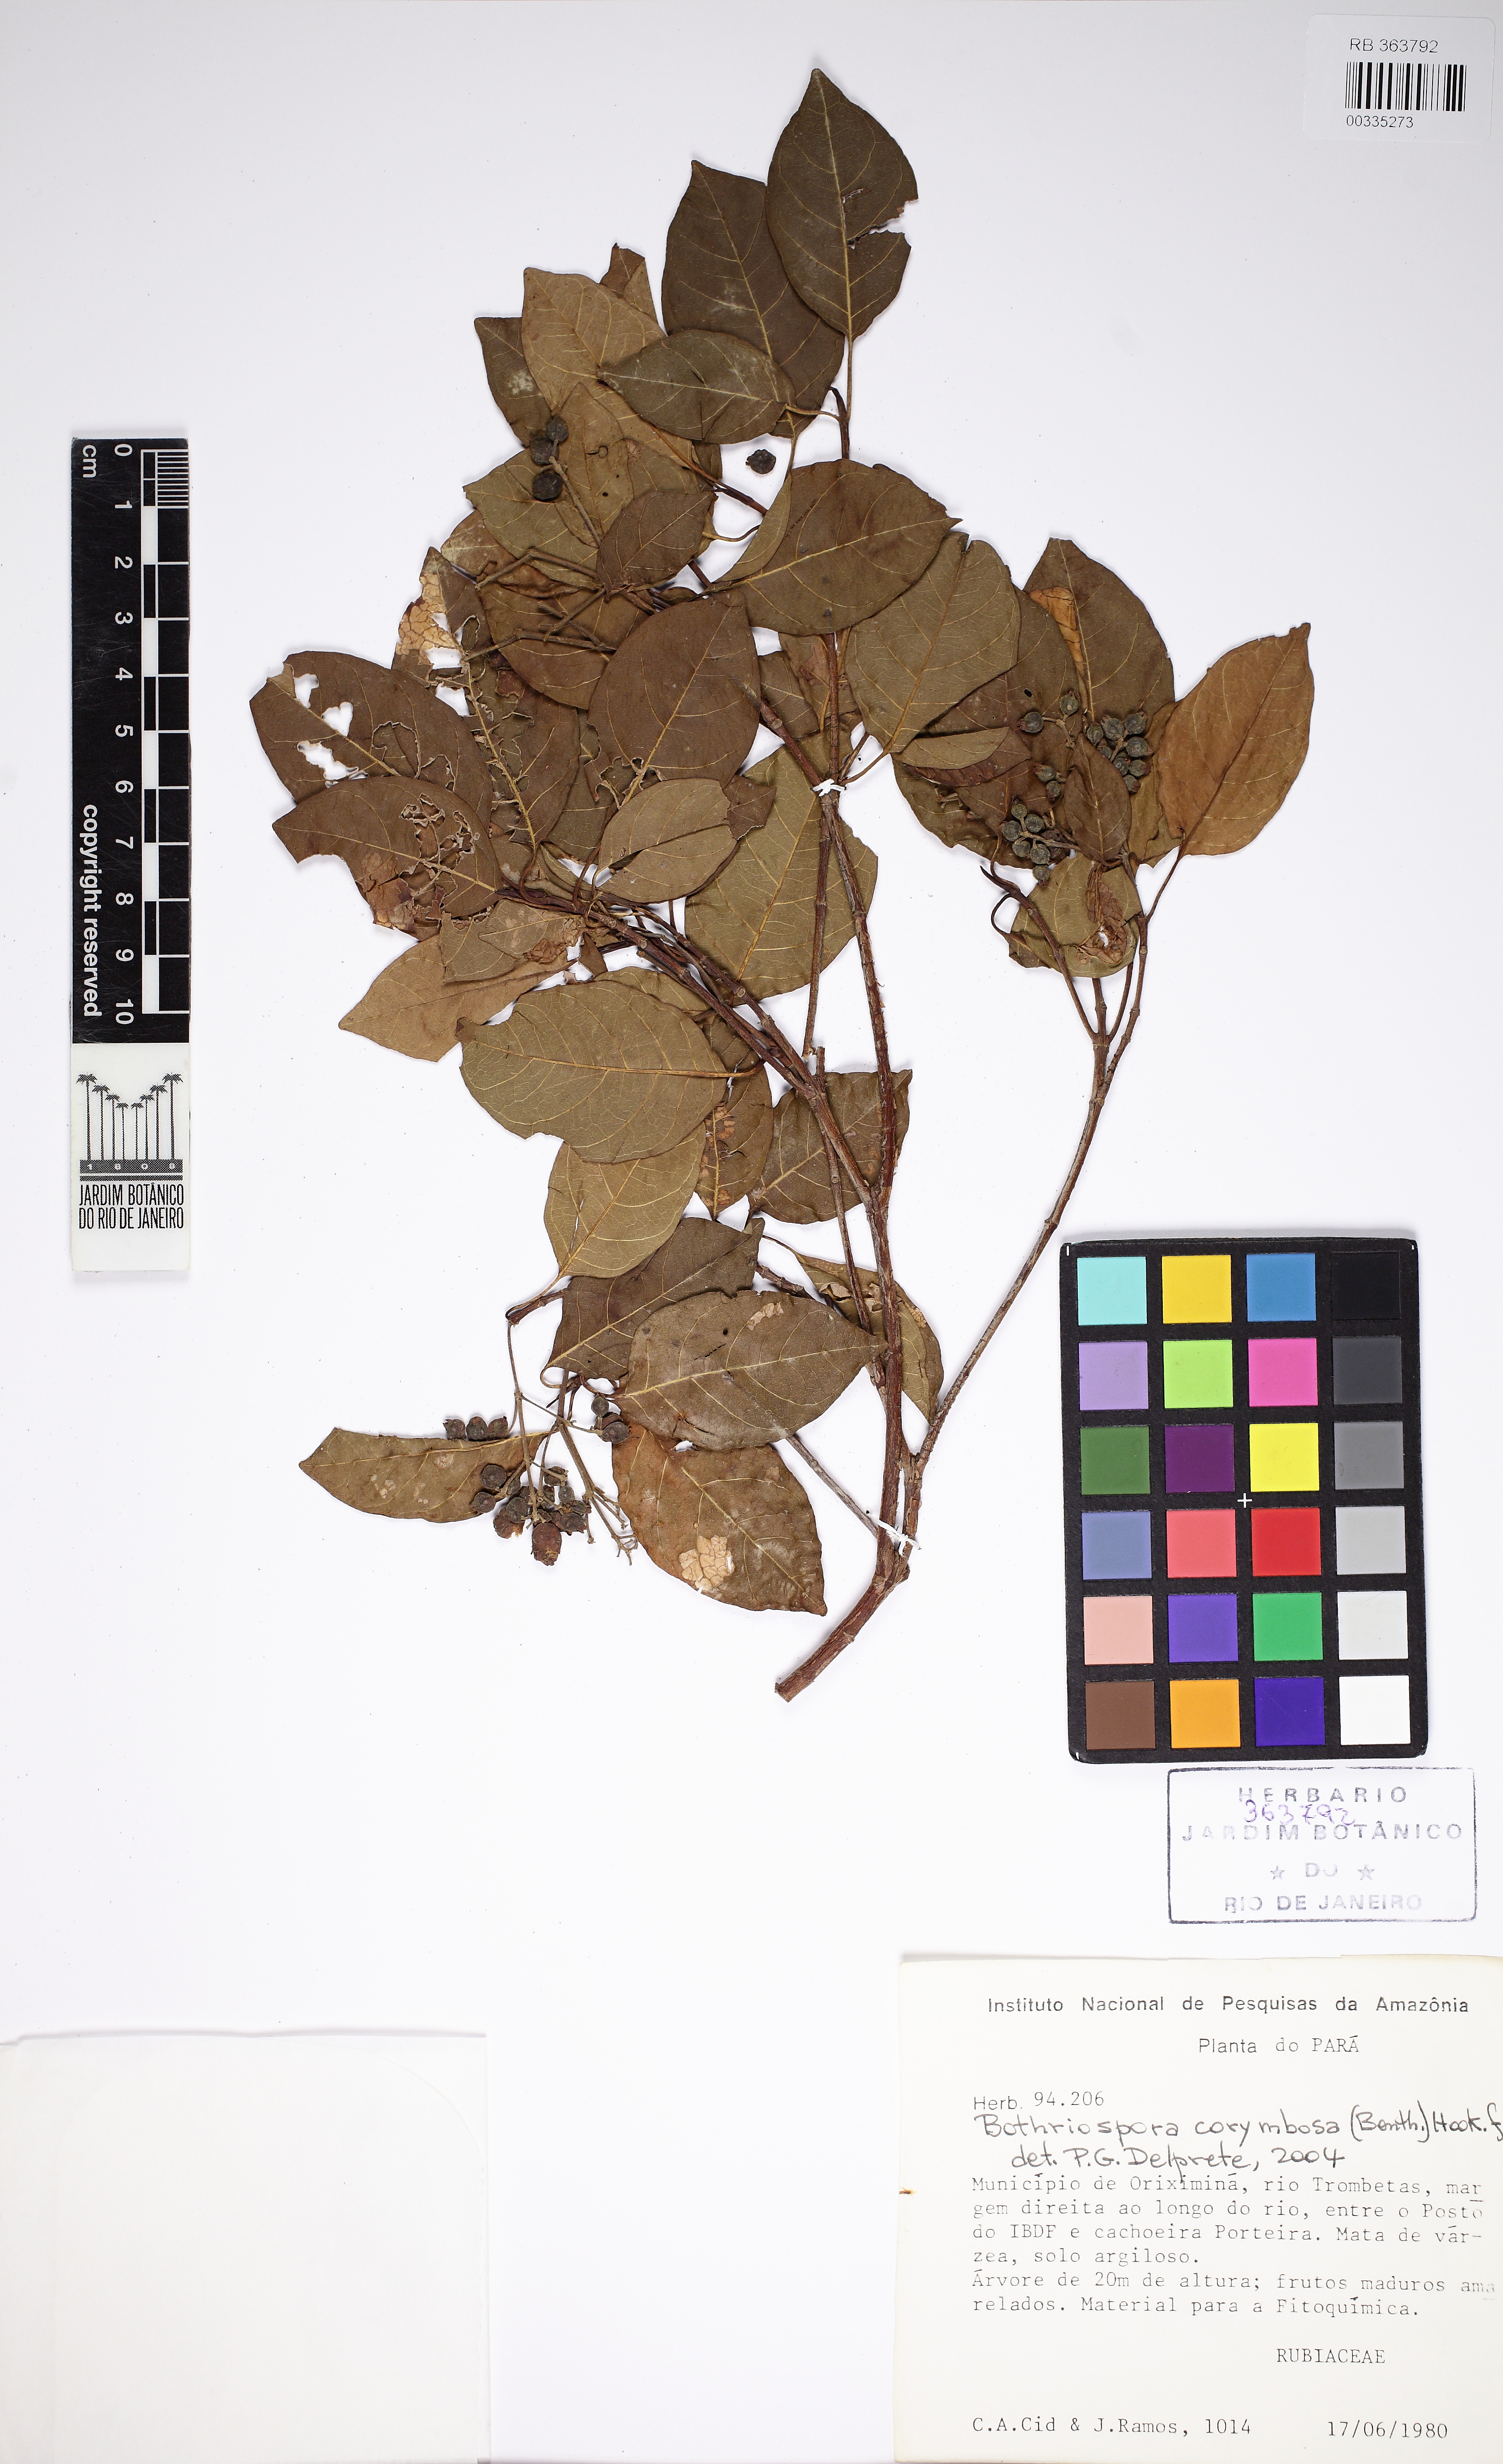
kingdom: Plantae
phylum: Tracheophyta
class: Magnoliopsida
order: Gentianales
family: Rubiaceae
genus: Bothriospora
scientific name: Bothriospora corymbosa
